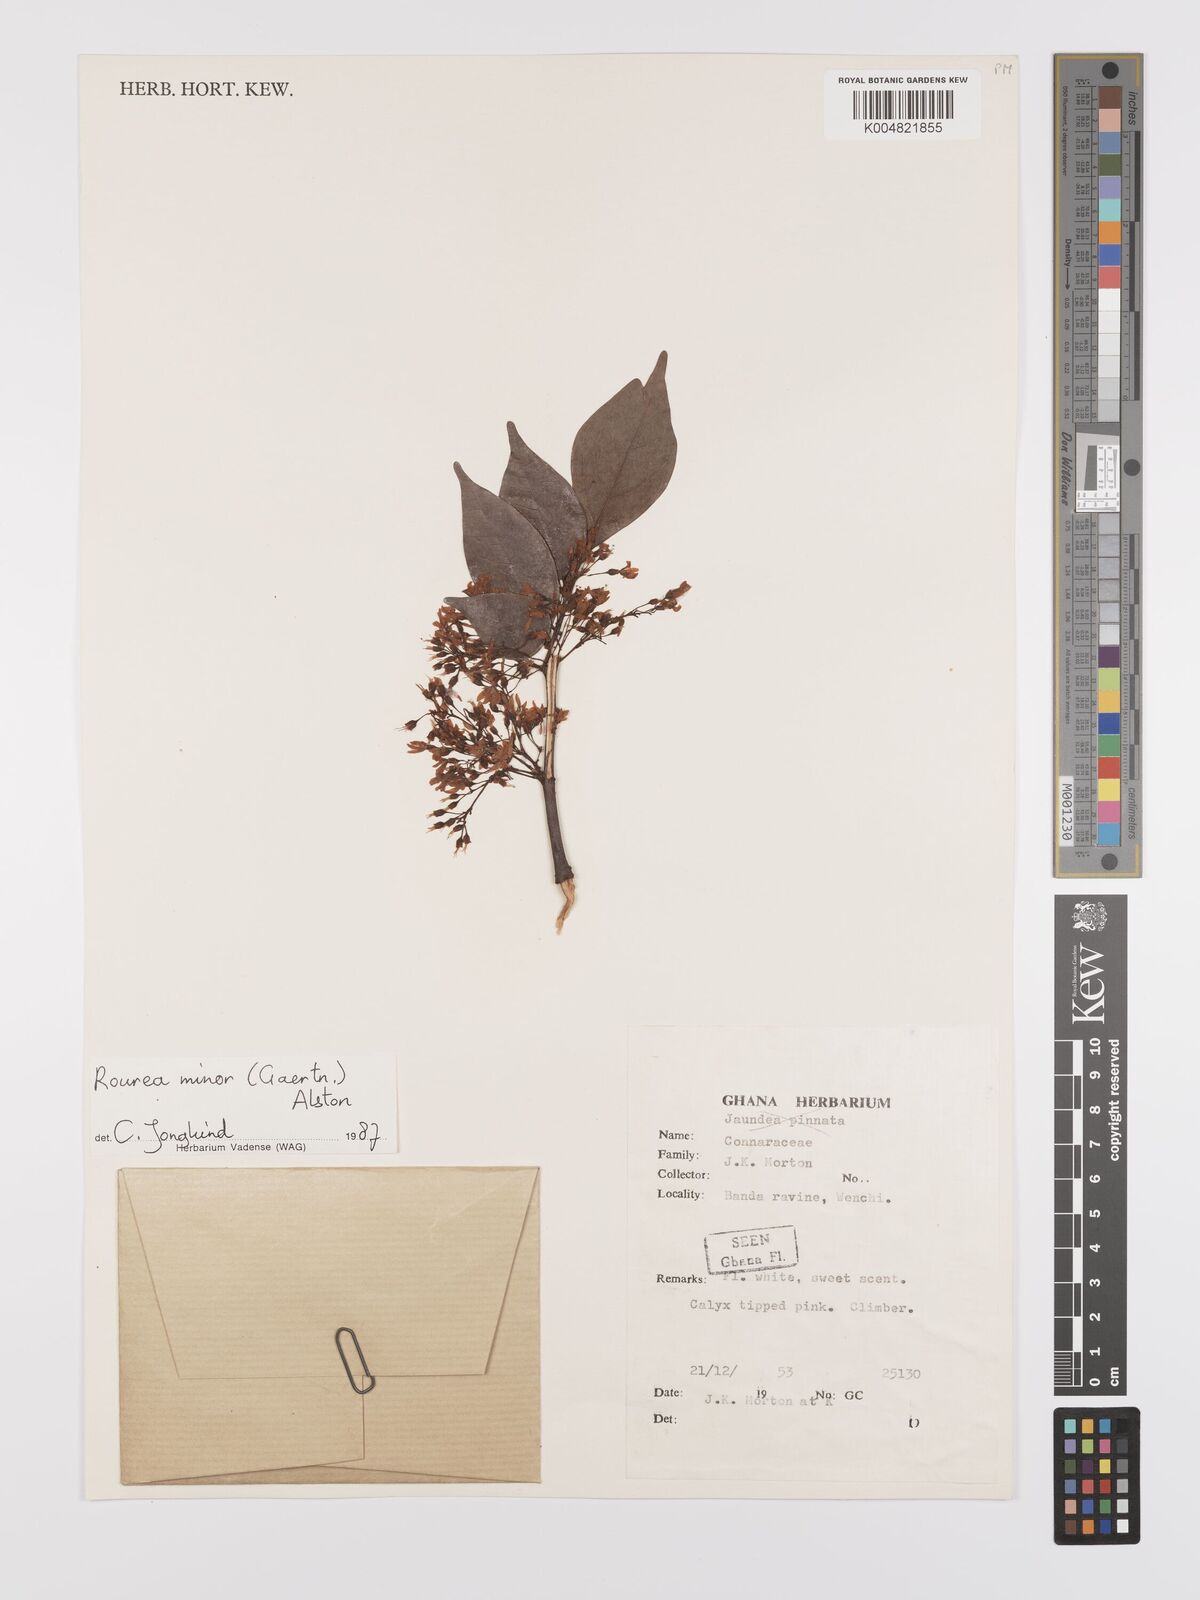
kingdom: Plantae
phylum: Tracheophyta
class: Magnoliopsida
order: Oxalidales
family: Connaraceae
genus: Rourea
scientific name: Rourea pinnata
